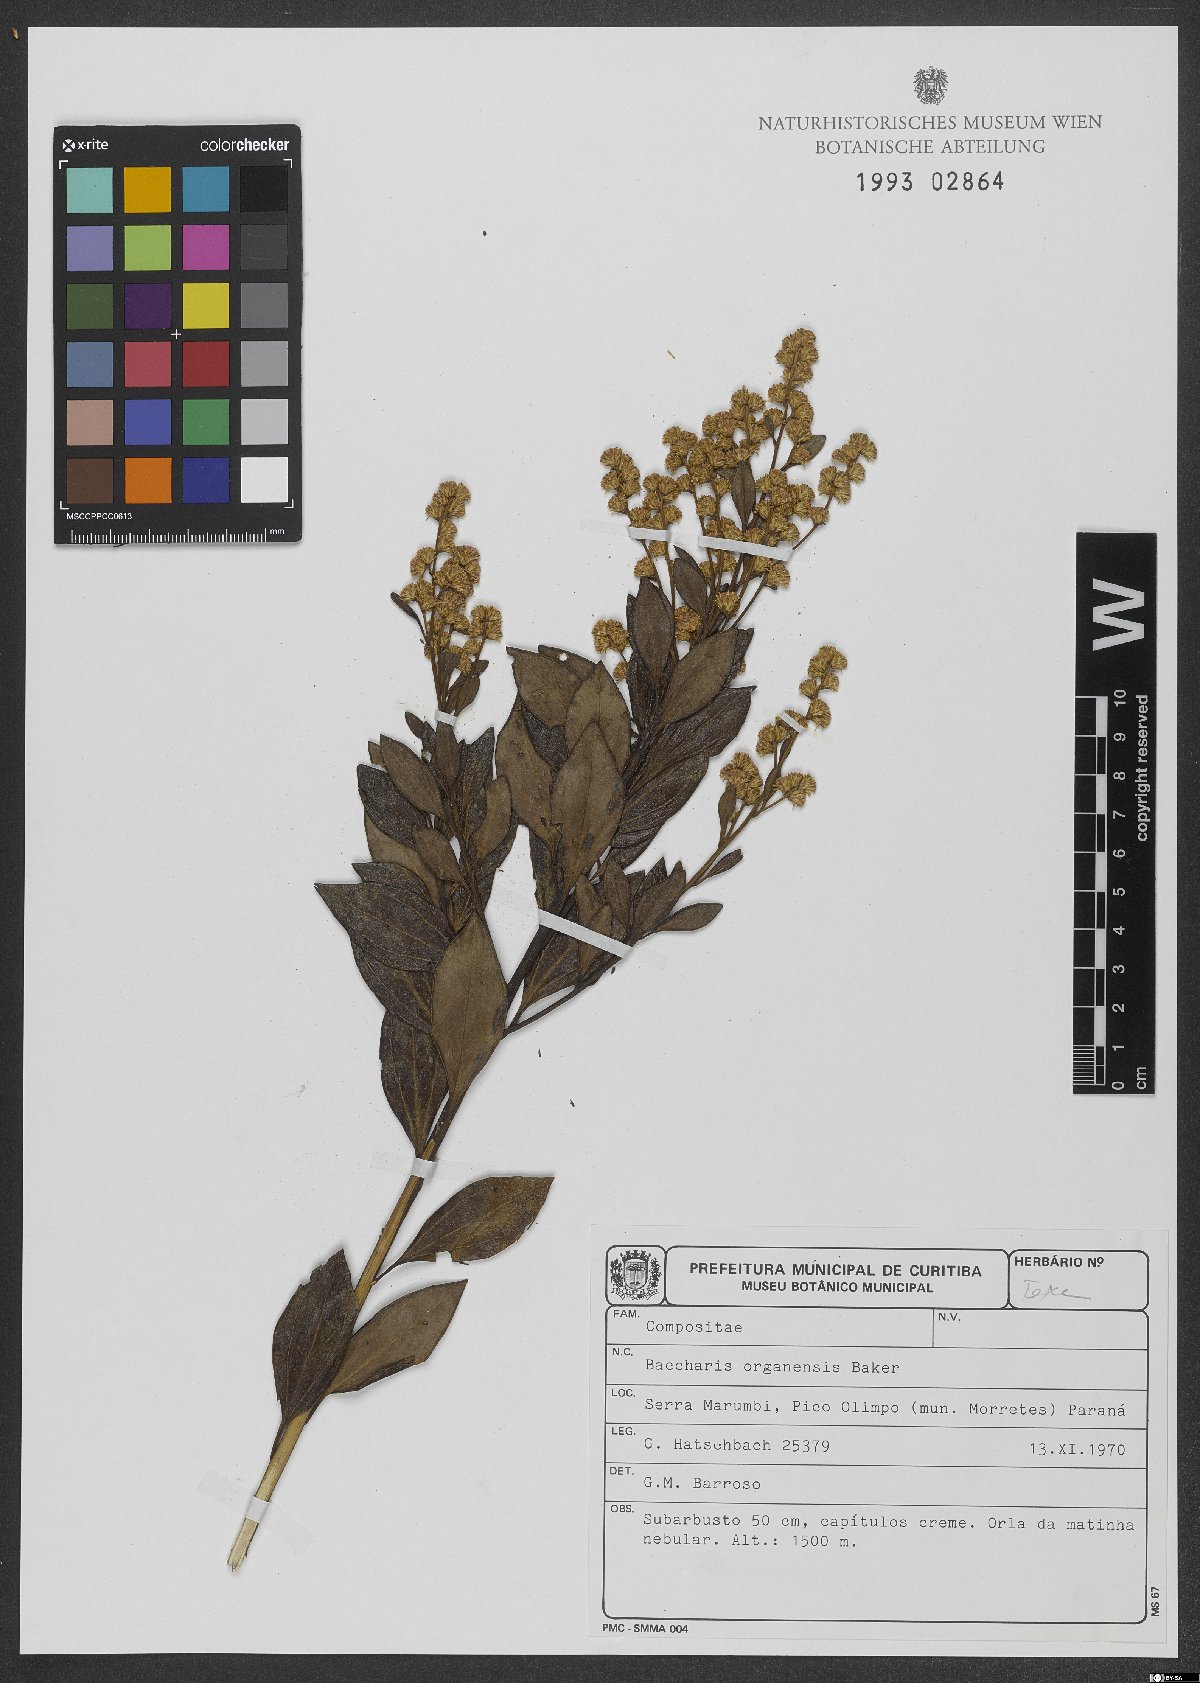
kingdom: Plantae
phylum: Tracheophyta
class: Magnoliopsida
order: Asterales
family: Asteraceae
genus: Baccharis
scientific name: Baccharis organensis
